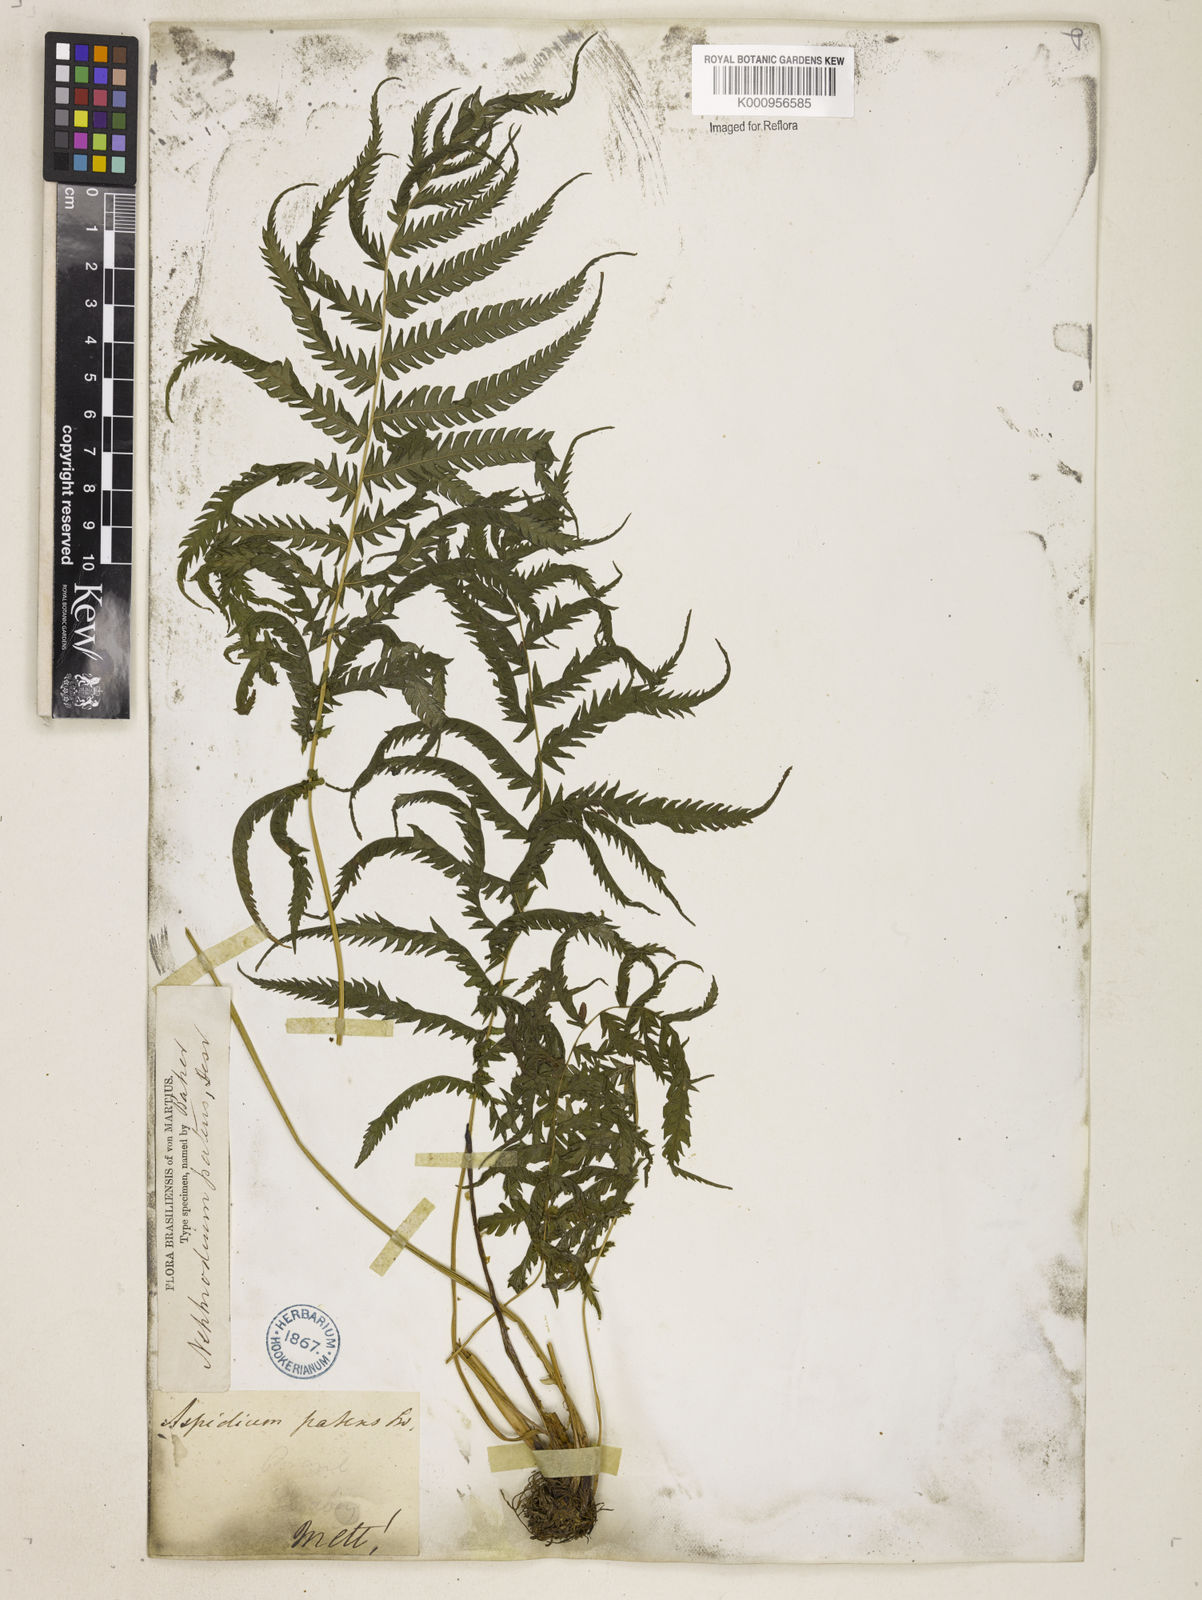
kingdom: Plantae
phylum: Tracheophyta
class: Polypodiopsida
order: Polypodiales
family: Thelypteridaceae
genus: Pelazoneuron
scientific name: Pelazoneuron patens
